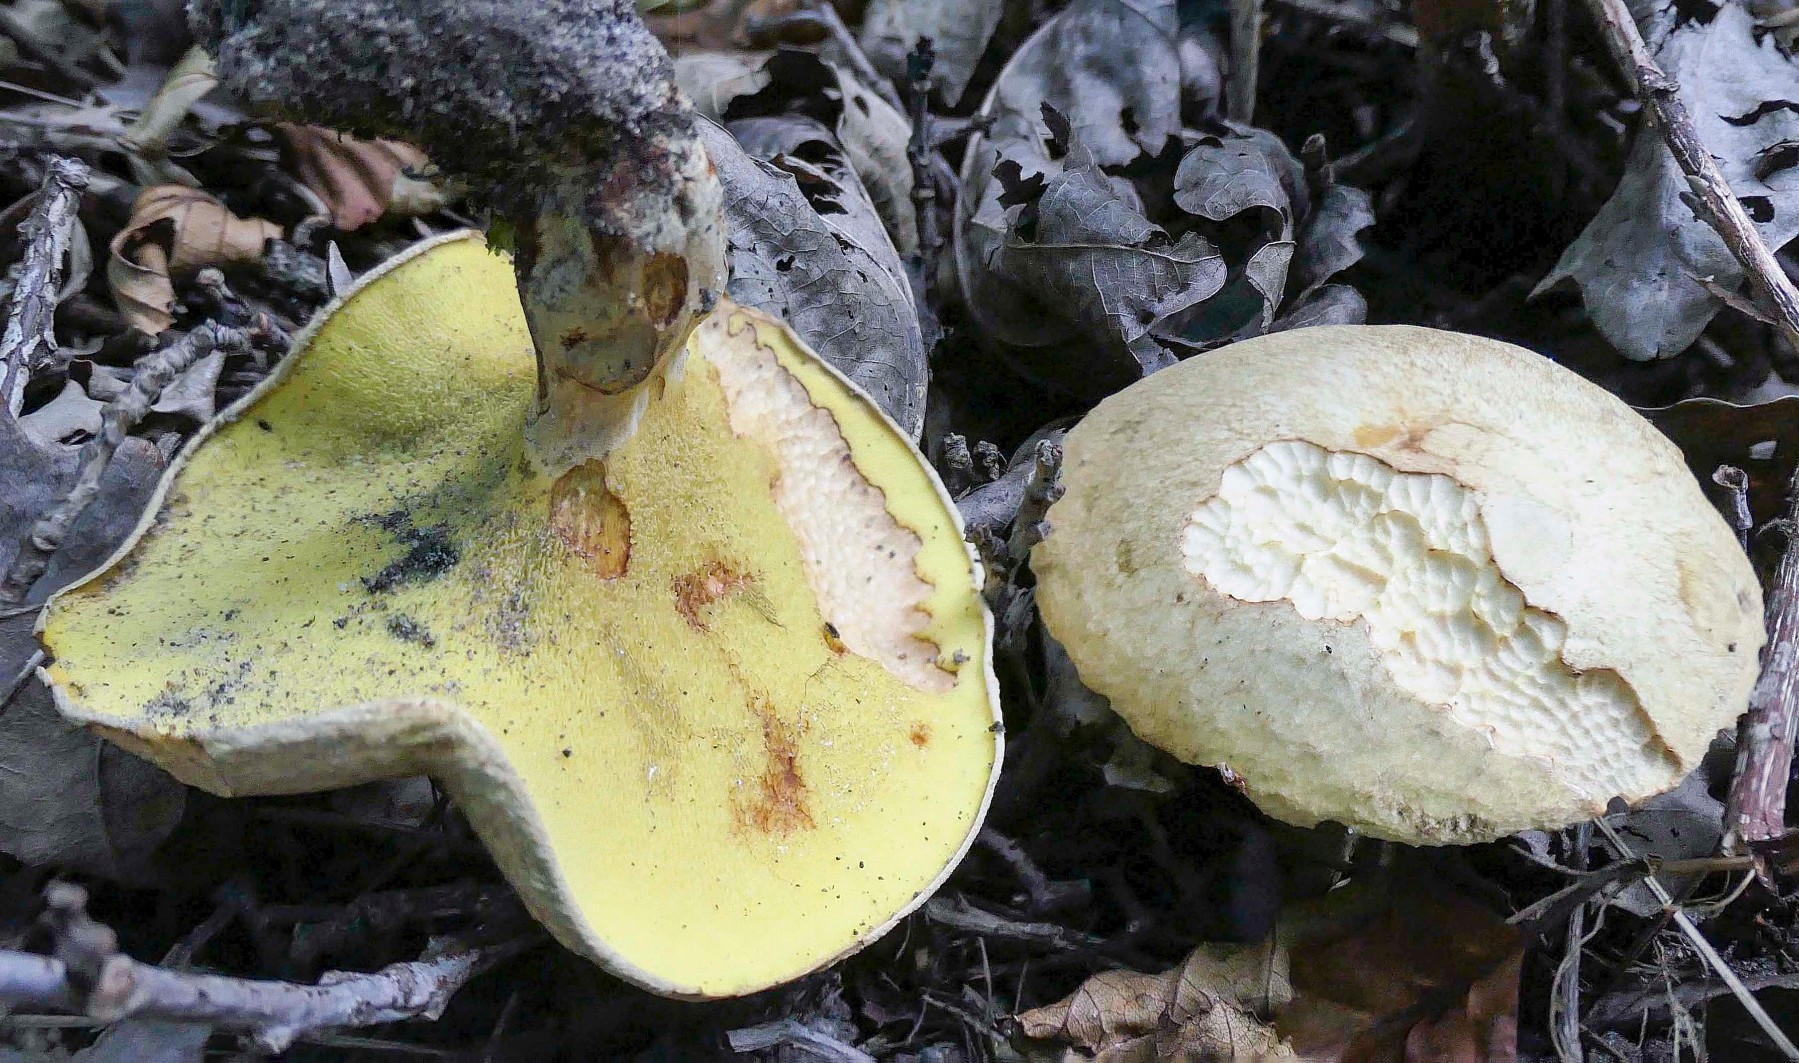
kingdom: Fungi
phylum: Basidiomycota
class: Agaricomycetes
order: Boletales
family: Paxillaceae
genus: Gyrodon
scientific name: Gyrodon lividus
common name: ellerørhat
